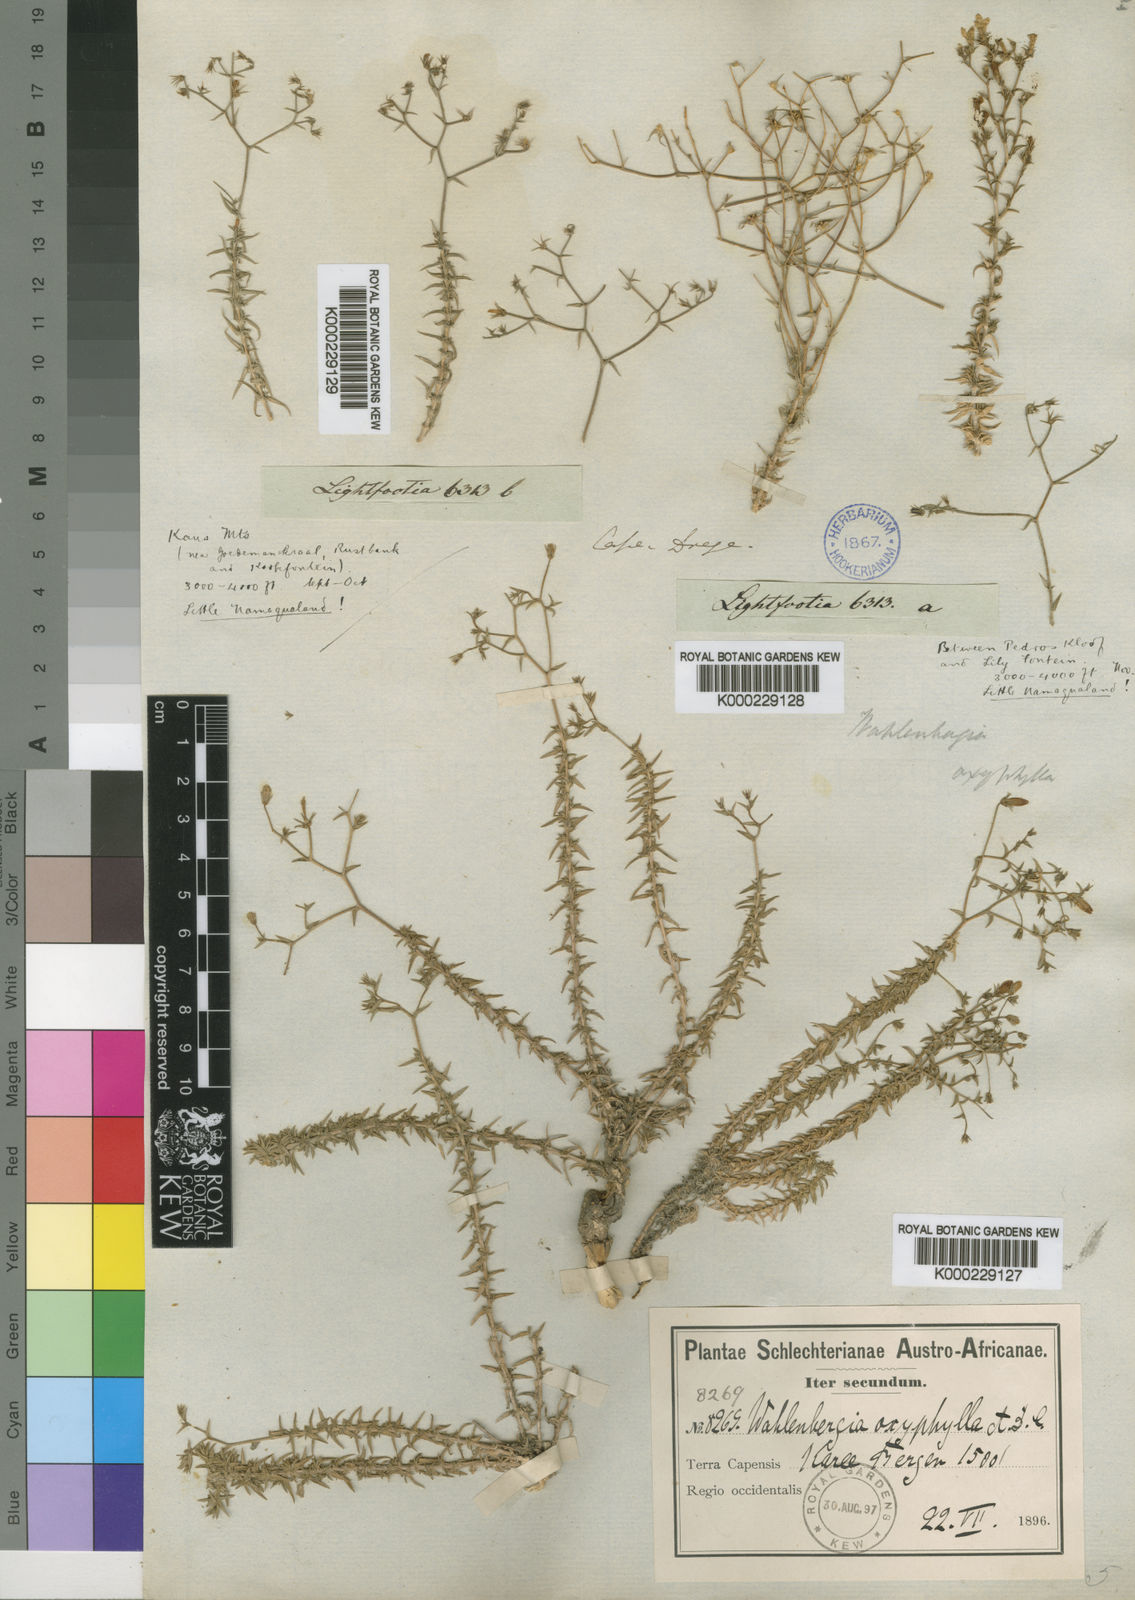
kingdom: Plantae
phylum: Tracheophyta
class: Magnoliopsida
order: Asterales
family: Campanulaceae
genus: Wahlenbergia
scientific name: Wahlenbergia oxyphylla
